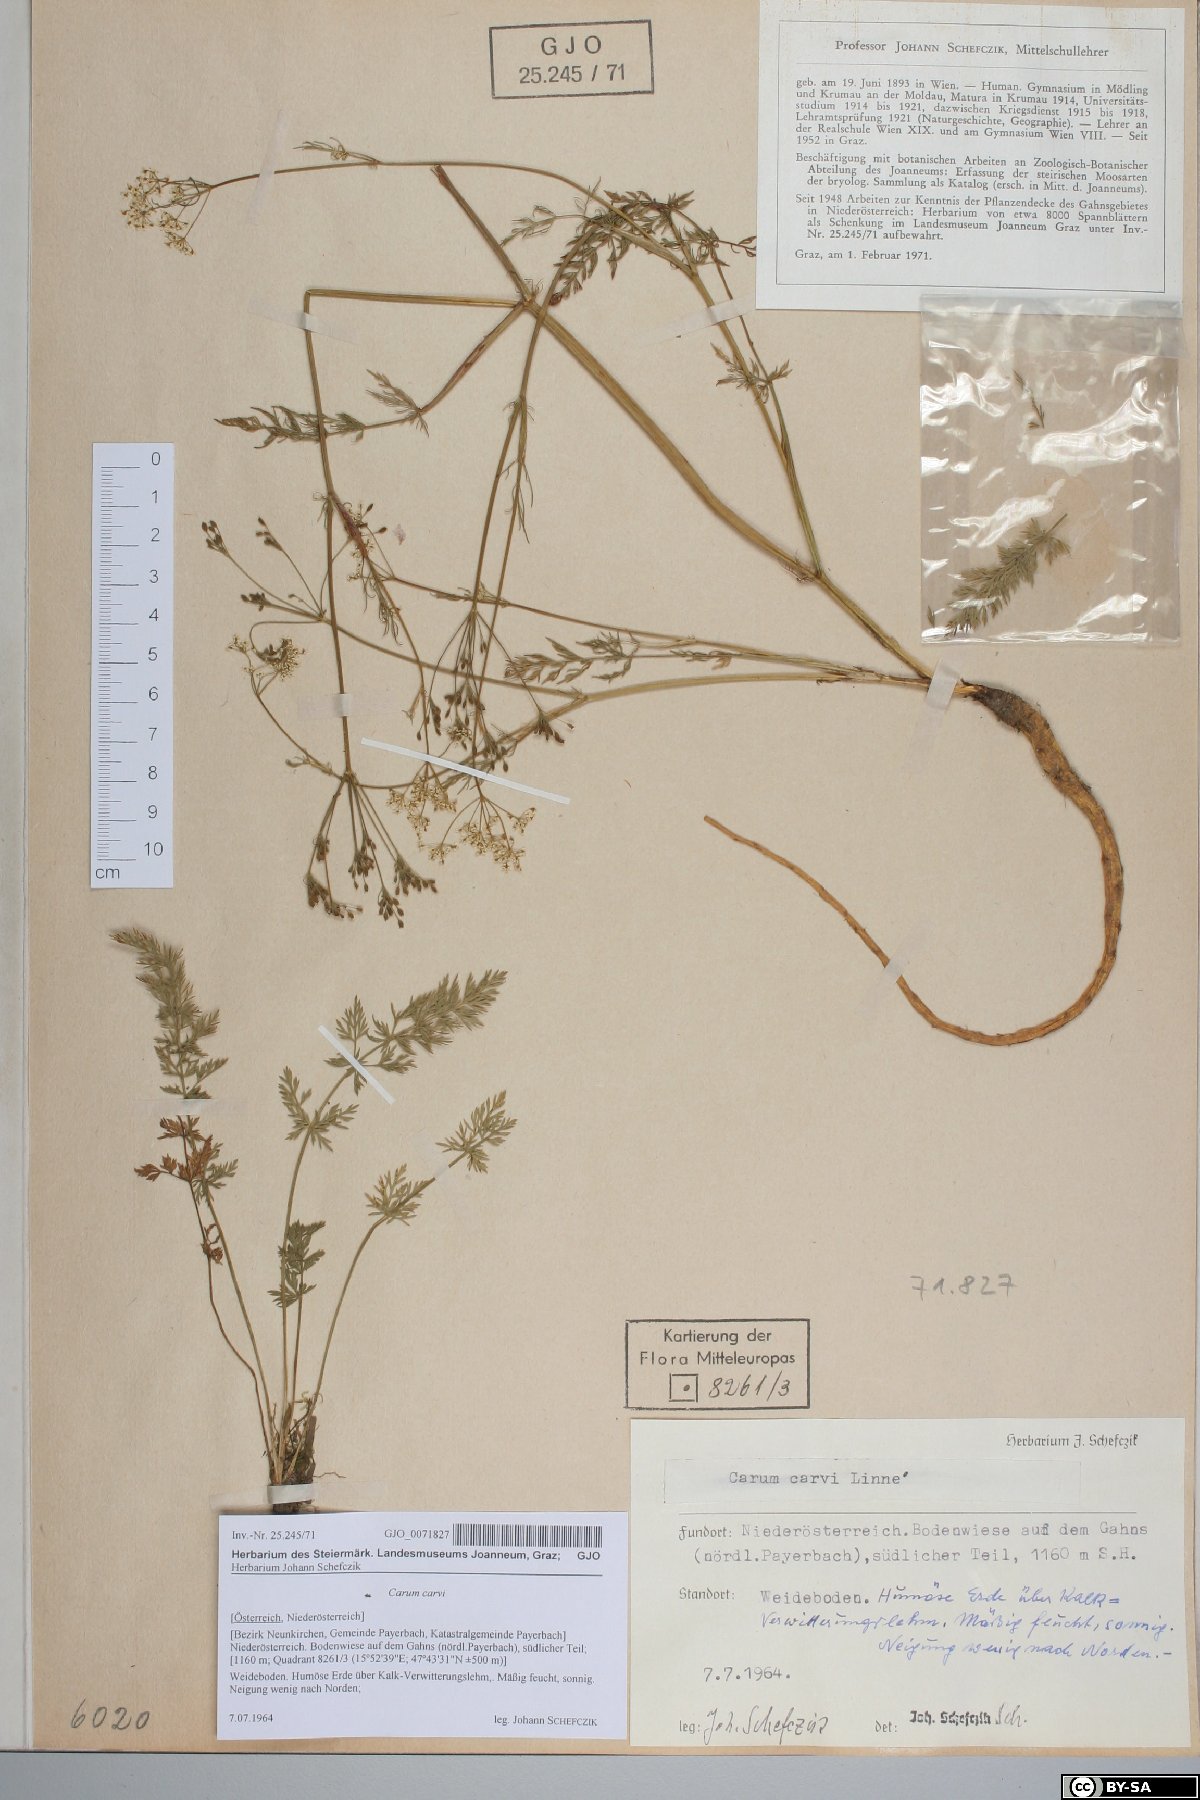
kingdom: Plantae
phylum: Tracheophyta
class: Magnoliopsida
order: Apiales
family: Apiaceae
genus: Carum
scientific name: Carum carvi
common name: Caraway
